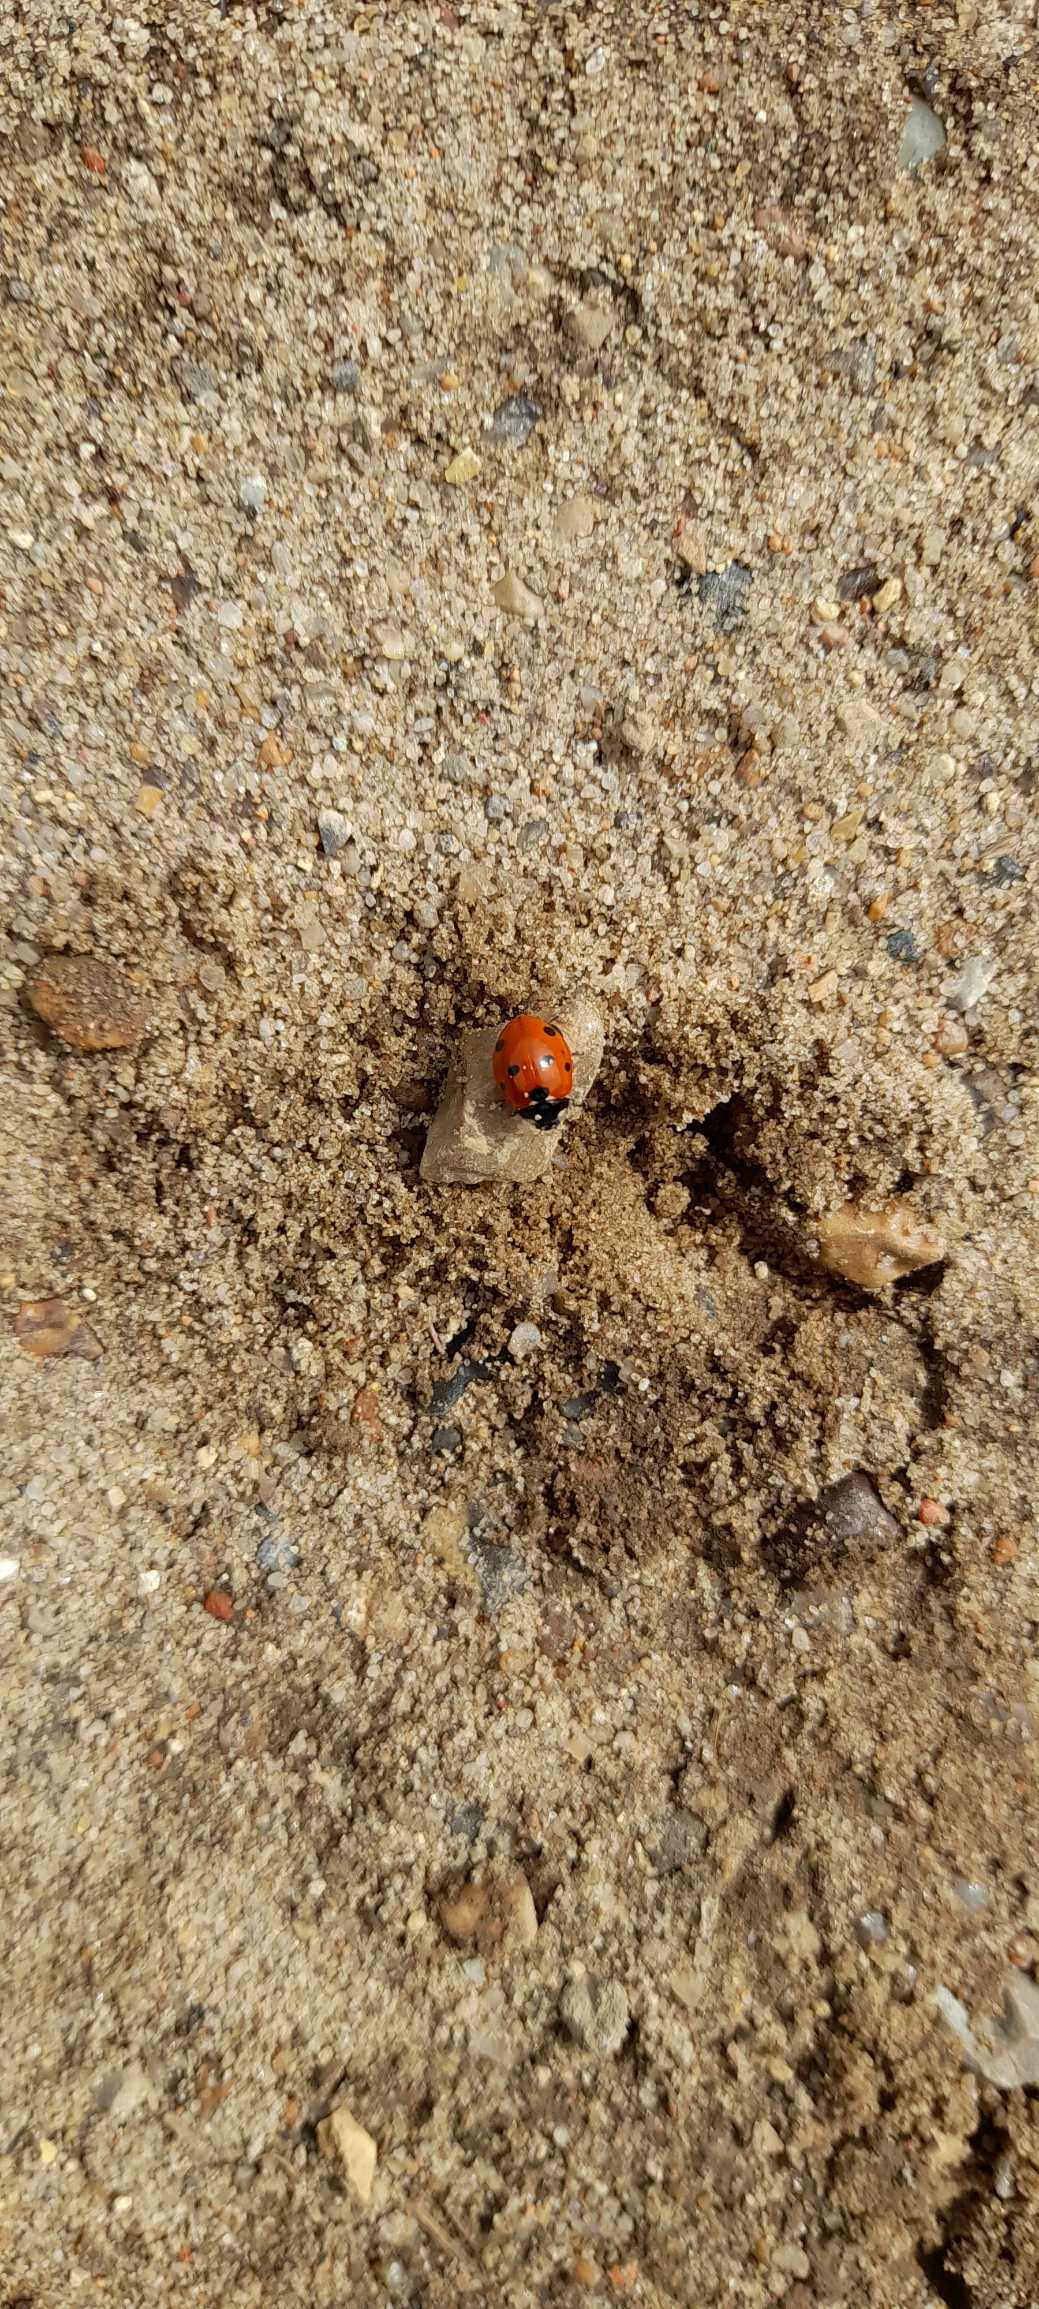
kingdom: Animalia
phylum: Arthropoda
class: Insecta
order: Coleoptera
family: Coccinellidae
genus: Coccinella
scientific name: Coccinella septempunctata
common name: Syvplettet mariehøne
